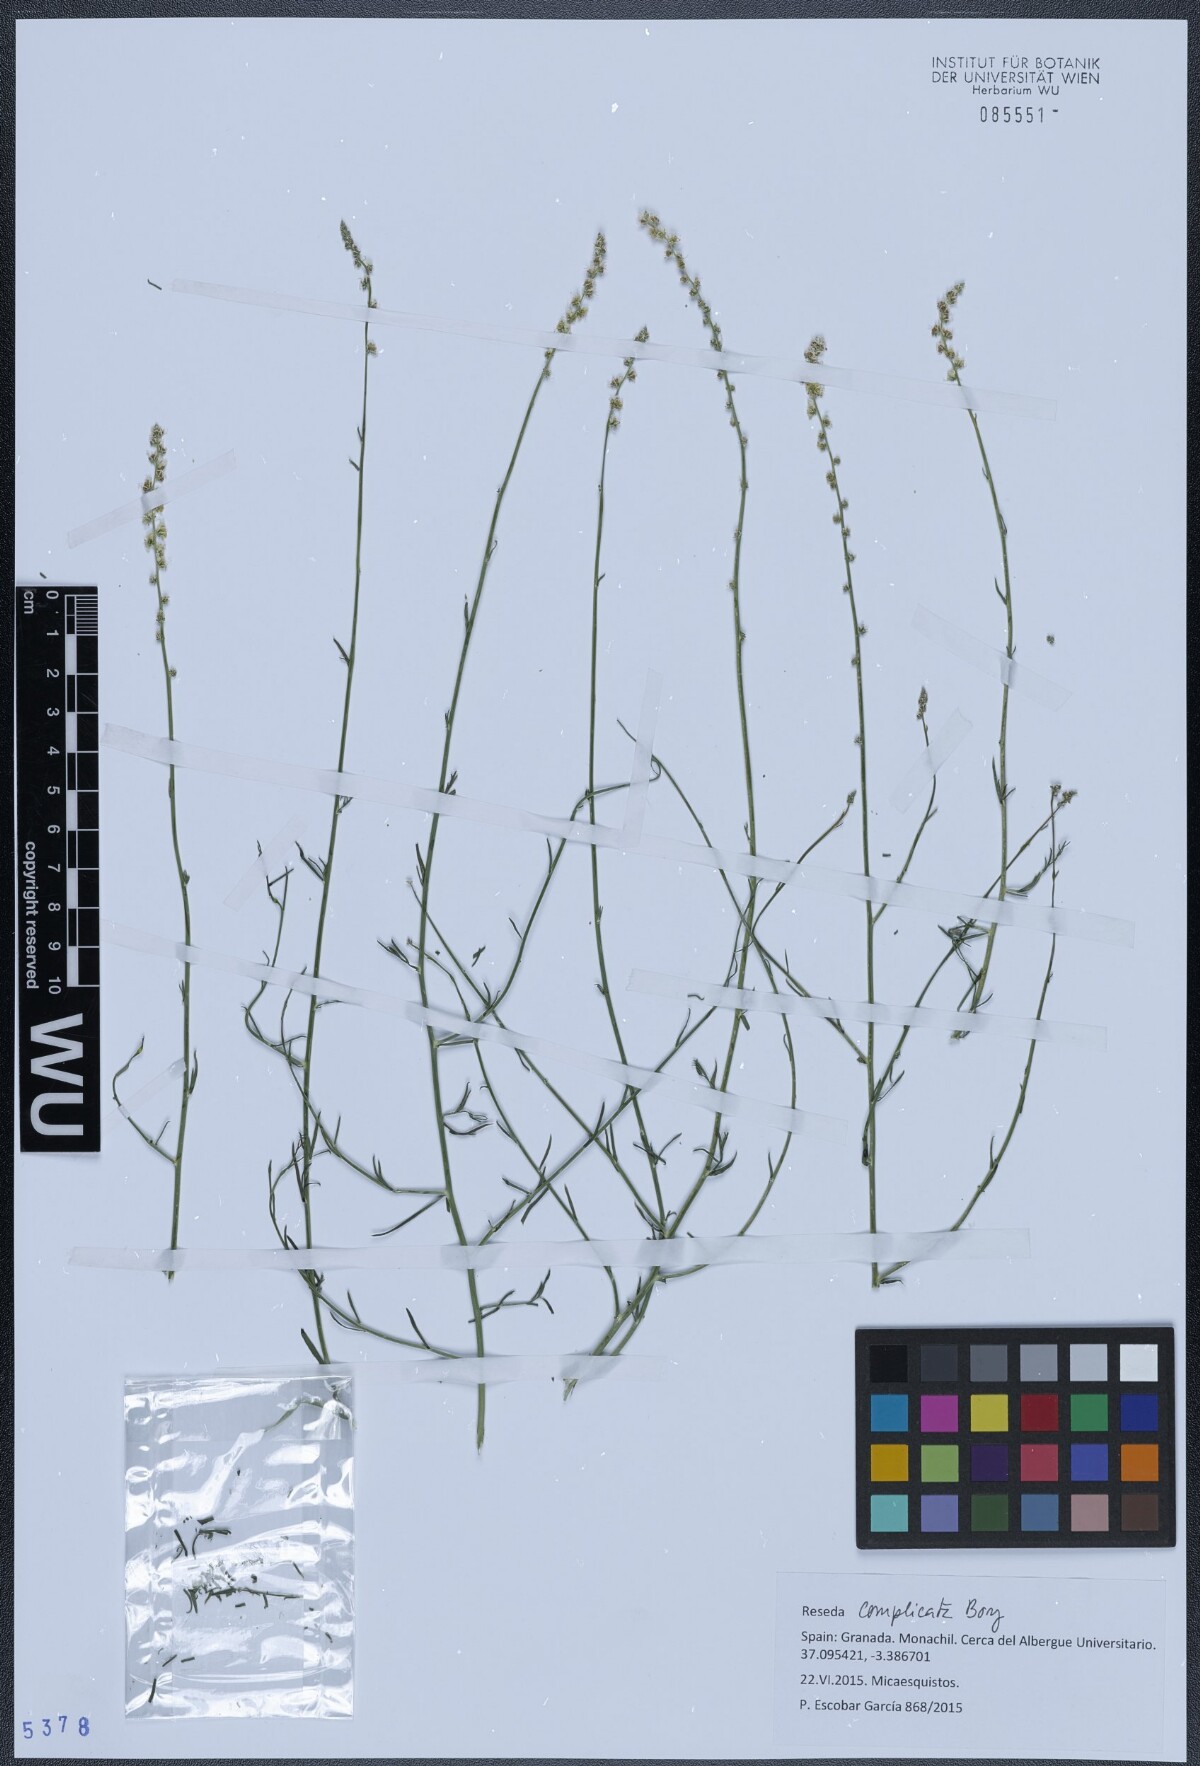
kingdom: Plantae
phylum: Tracheophyta
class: Magnoliopsida
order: Brassicales
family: Resedaceae
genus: Reseda
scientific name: Reseda complicata
